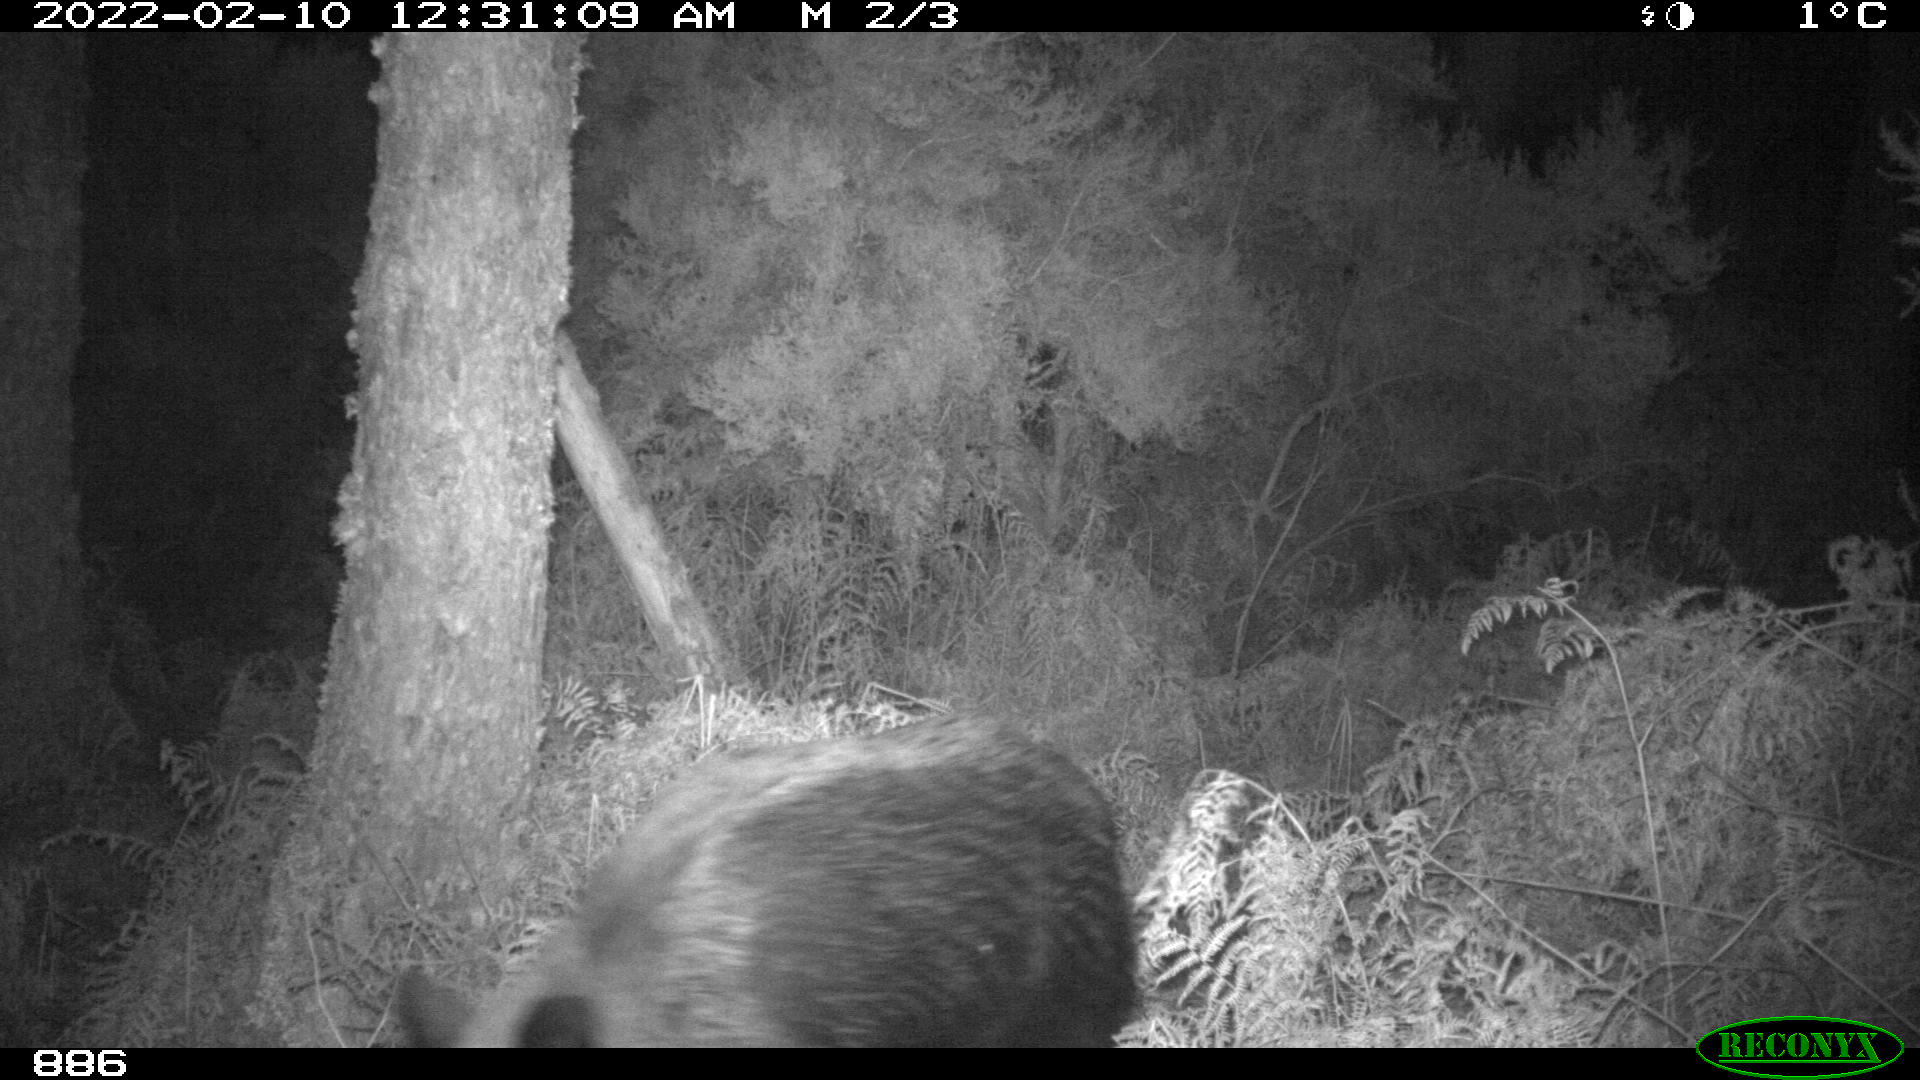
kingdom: Animalia
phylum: Chordata
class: Mammalia
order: Artiodactyla
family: Suidae
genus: Sus
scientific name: Sus scrofa
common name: Wild boar
